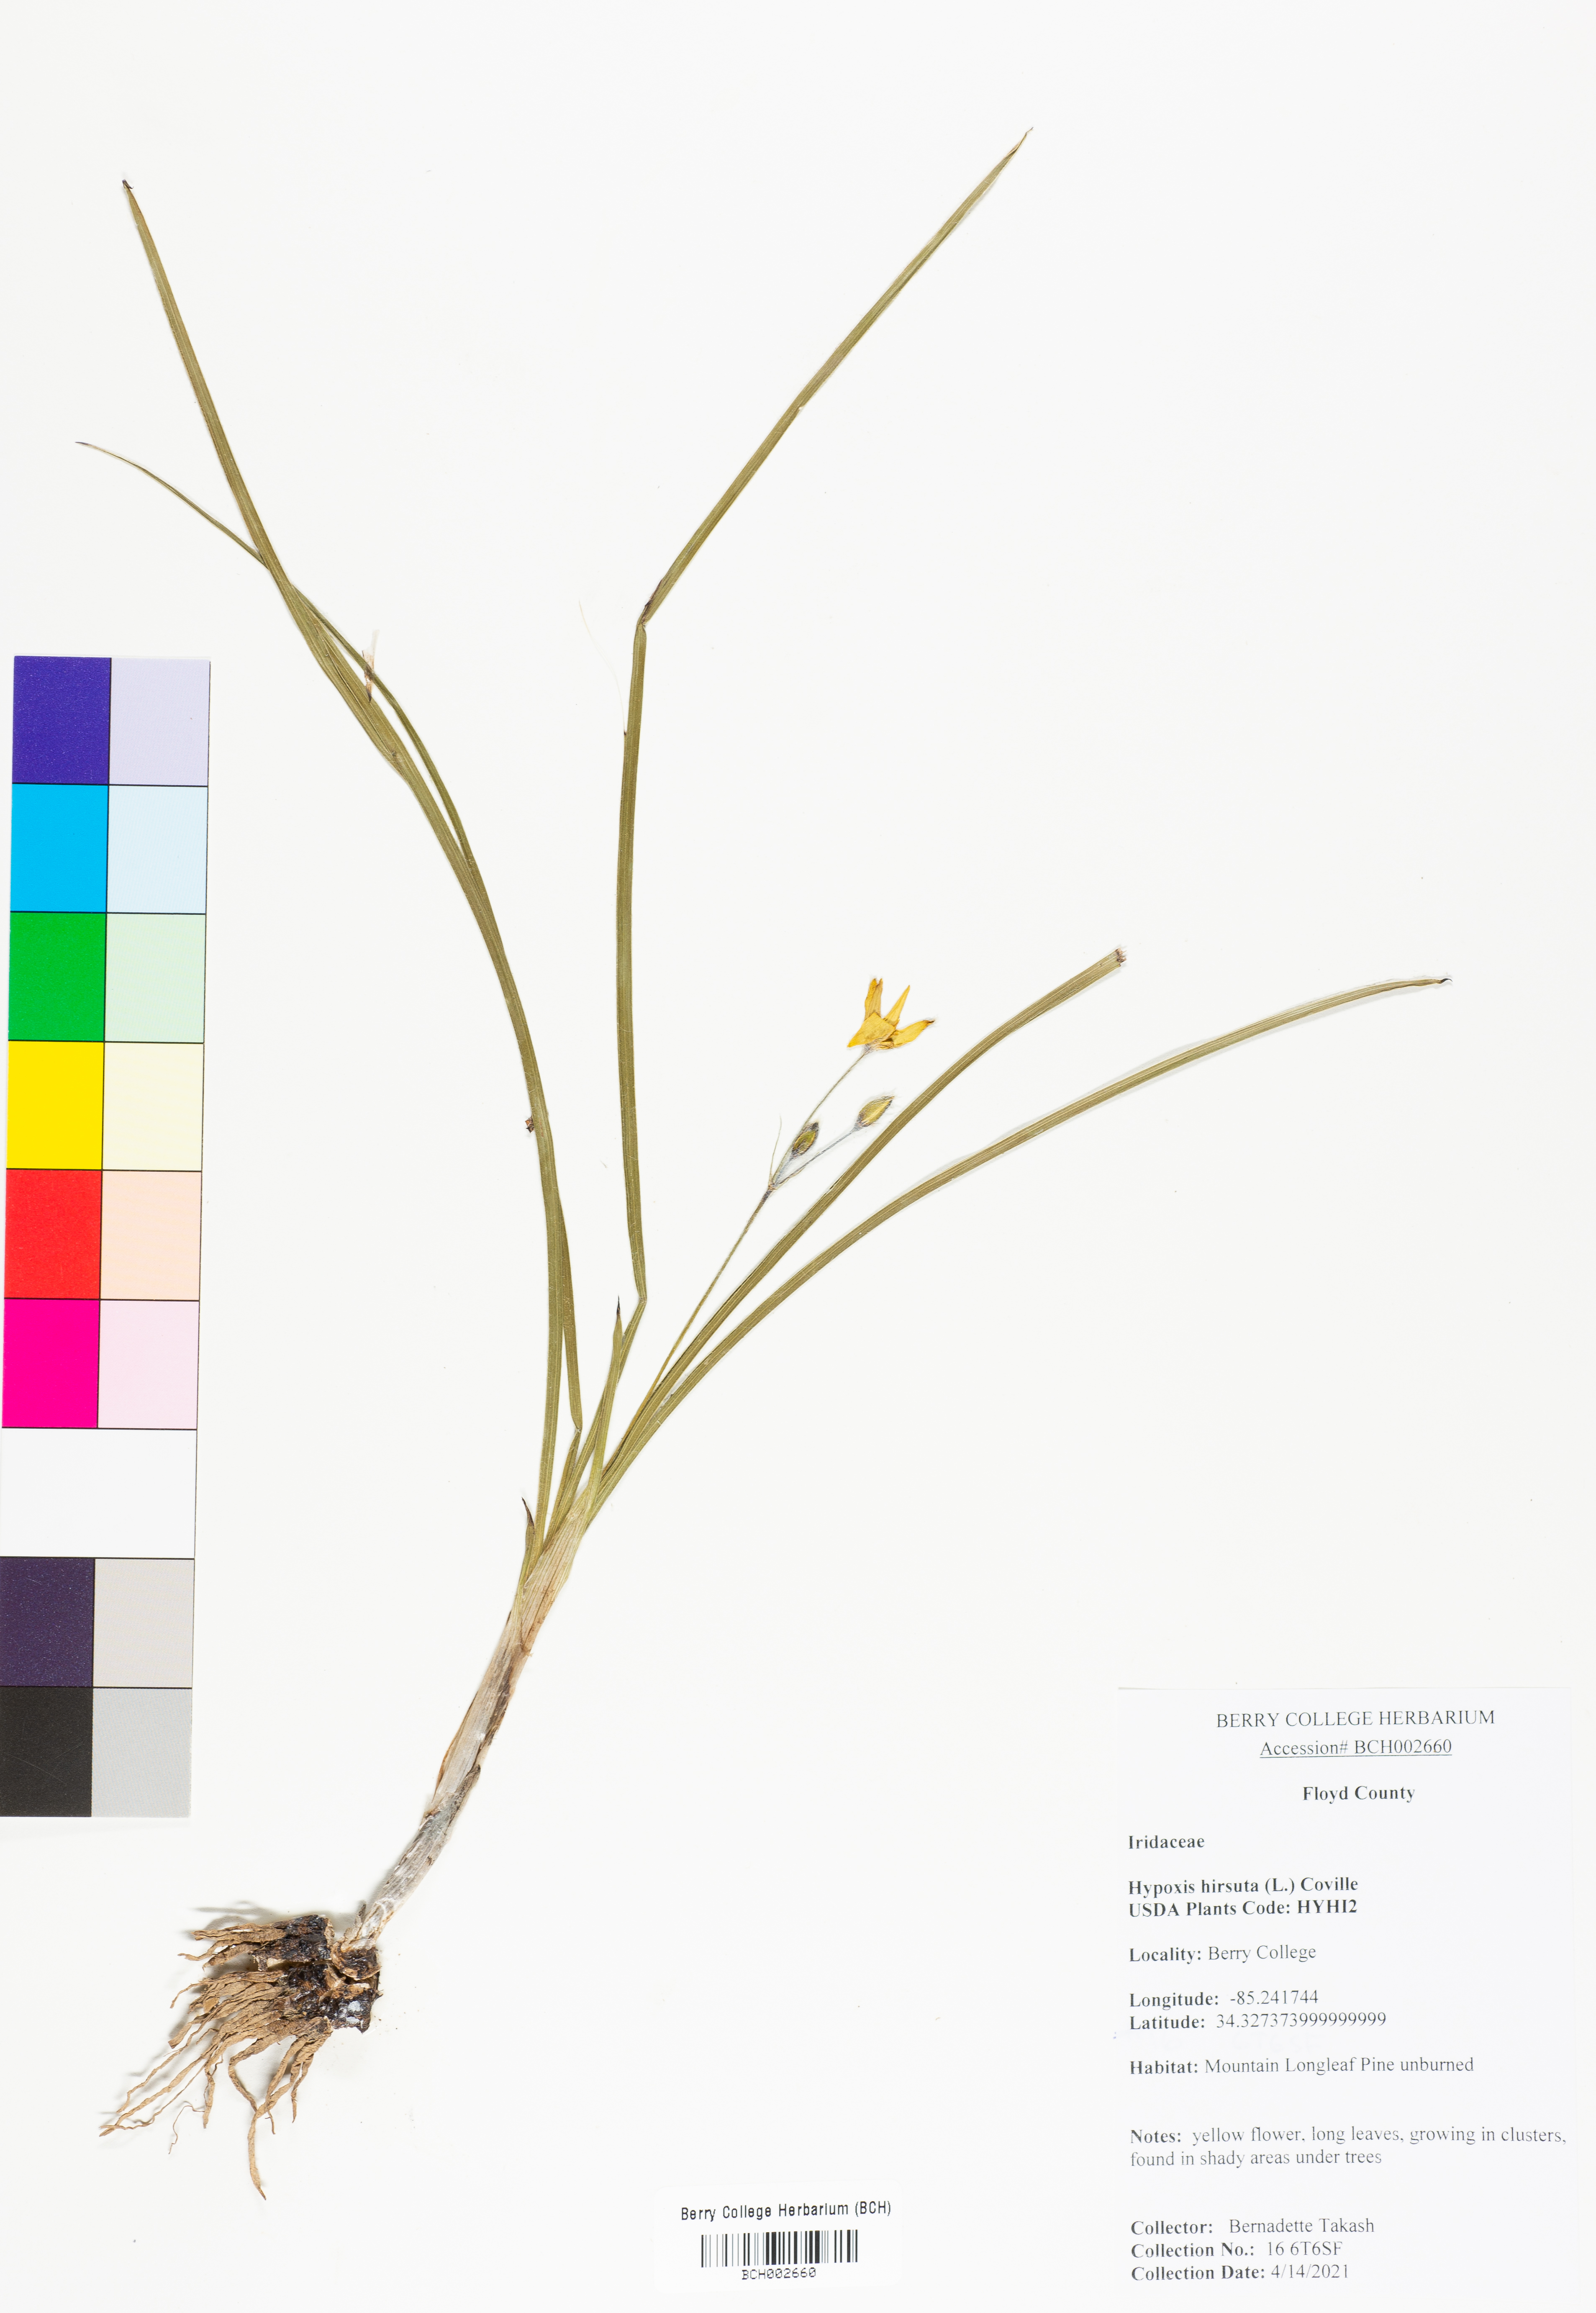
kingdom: Plantae
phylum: Tracheophyta
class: Liliopsida
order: Asparagales
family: Hypoxidaceae
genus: Hypoxis
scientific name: Hypoxis hirsuta
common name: Common goldstar
